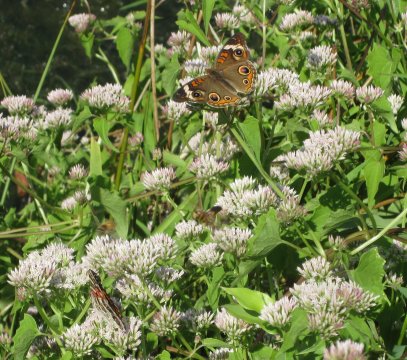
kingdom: Animalia
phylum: Arthropoda
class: Insecta
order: Lepidoptera
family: Nymphalidae
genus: Junonia
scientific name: Junonia coenia
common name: Common Buckeye
